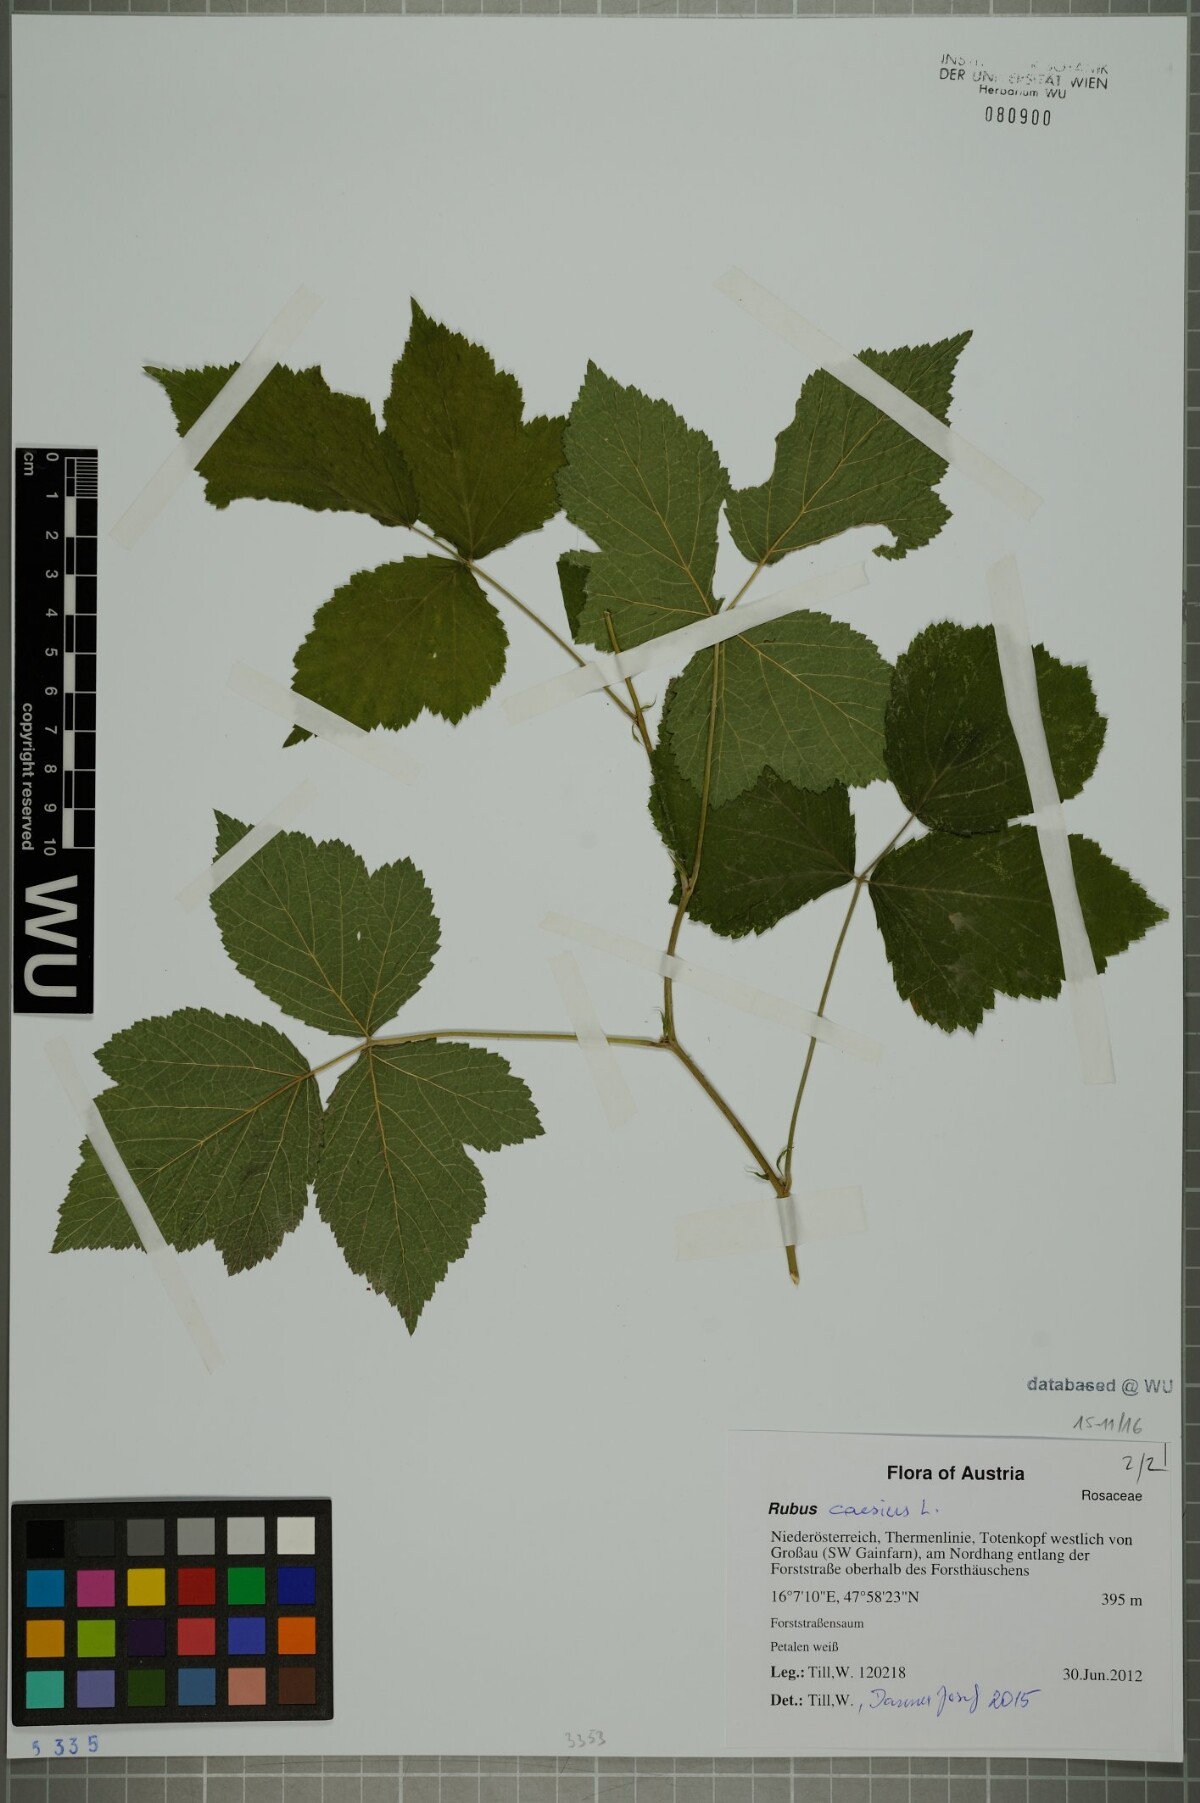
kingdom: Plantae
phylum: Tracheophyta
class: Magnoliopsida
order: Rosales
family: Rosaceae
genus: Rubus
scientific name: Rubus caesius
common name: Dewberry
